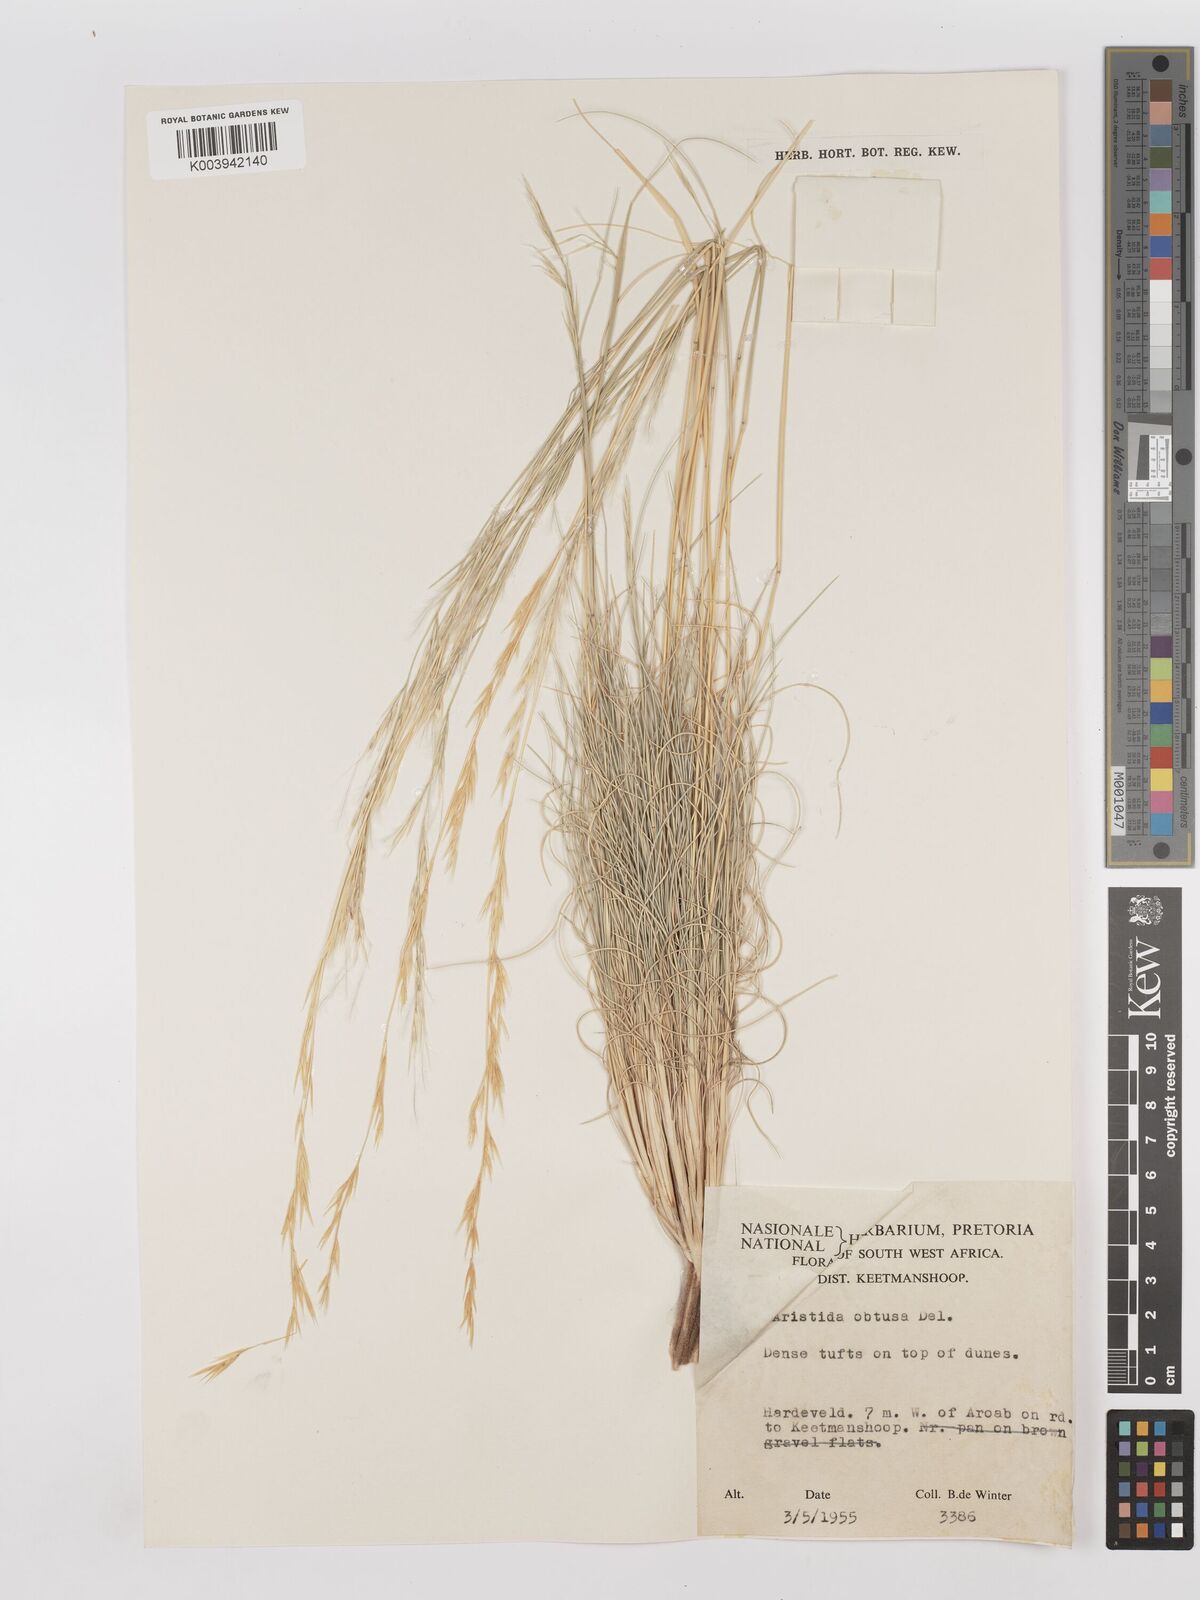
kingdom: Plantae
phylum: Tracheophyta
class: Liliopsida
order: Poales
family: Poaceae
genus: Stipagrostis
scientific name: Stipagrostis obtusa
